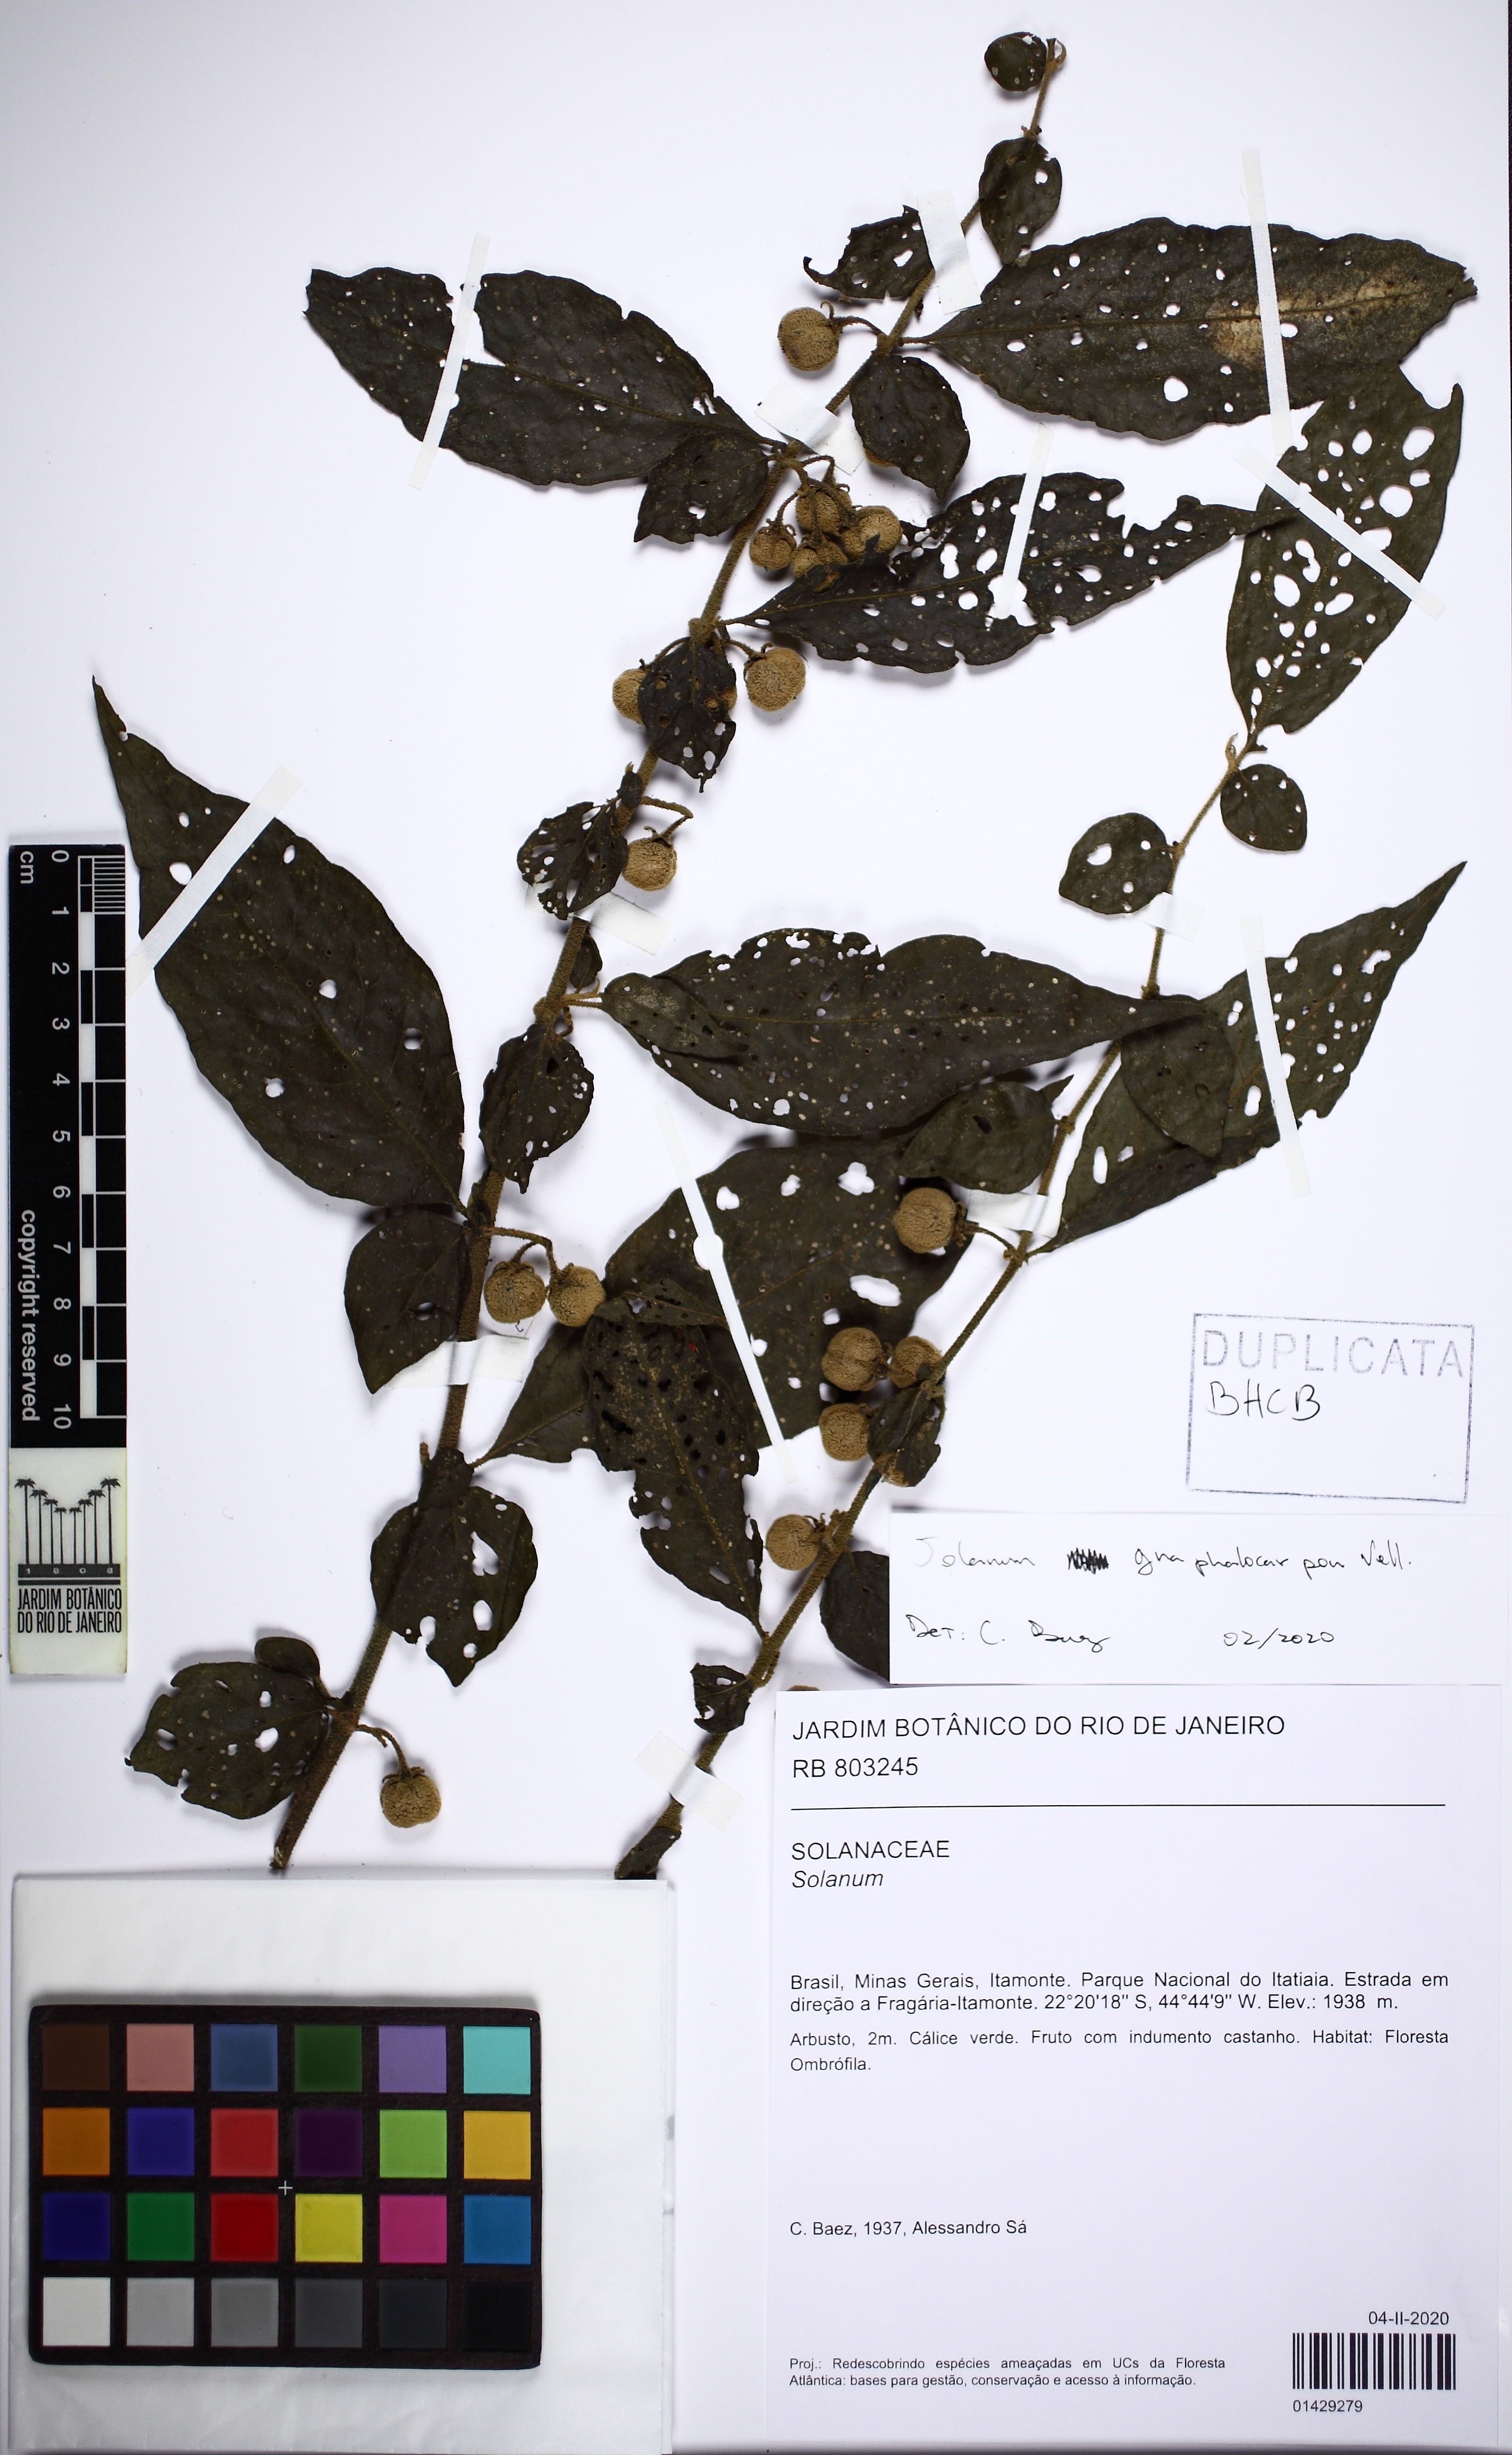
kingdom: Plantae
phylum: Tracheophyta
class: Magnoliopsida
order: Solanales
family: Solanaceae
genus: Solanum
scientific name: Solanum gnaphalocarpum
